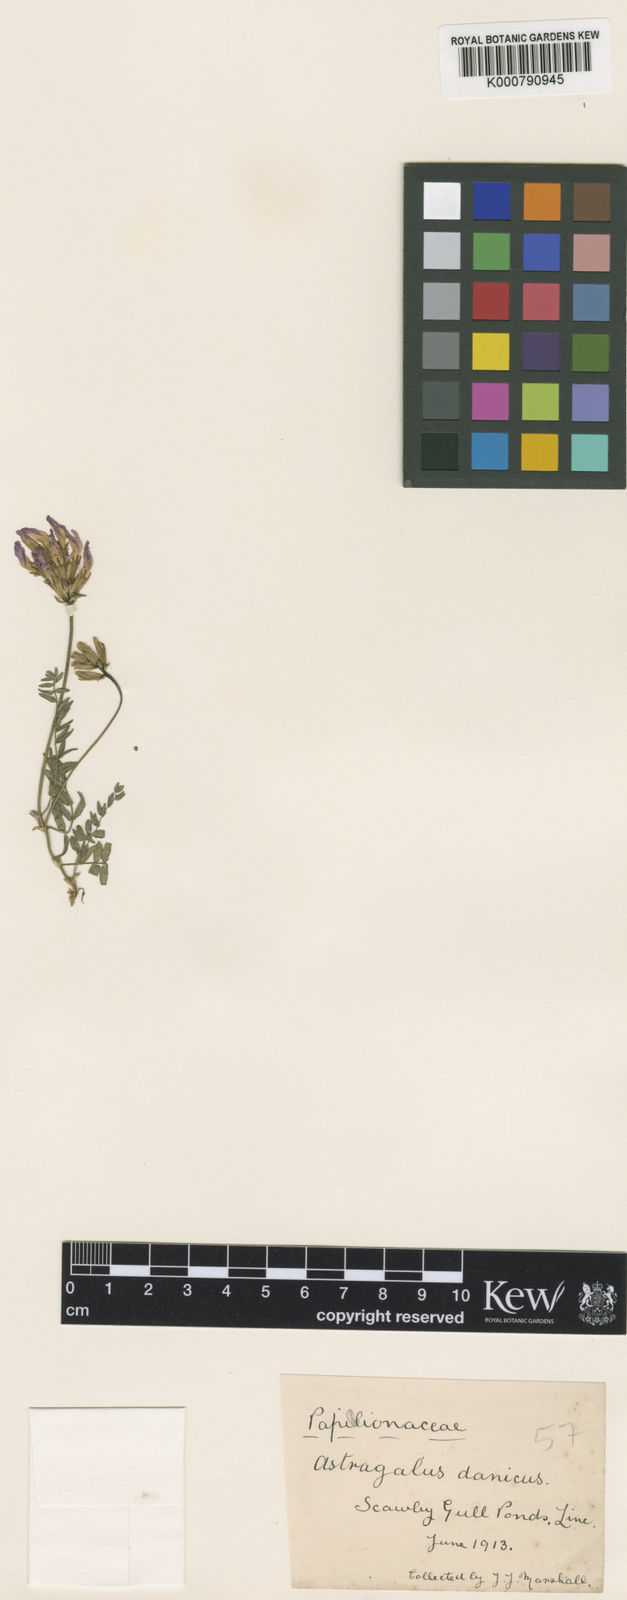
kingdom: Plantae
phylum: Tracheophyta
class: Magnoliopsida
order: Fabales
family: Fabaceae
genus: Astragalus
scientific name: Astragalus danicus
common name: Purple milk-vetch
